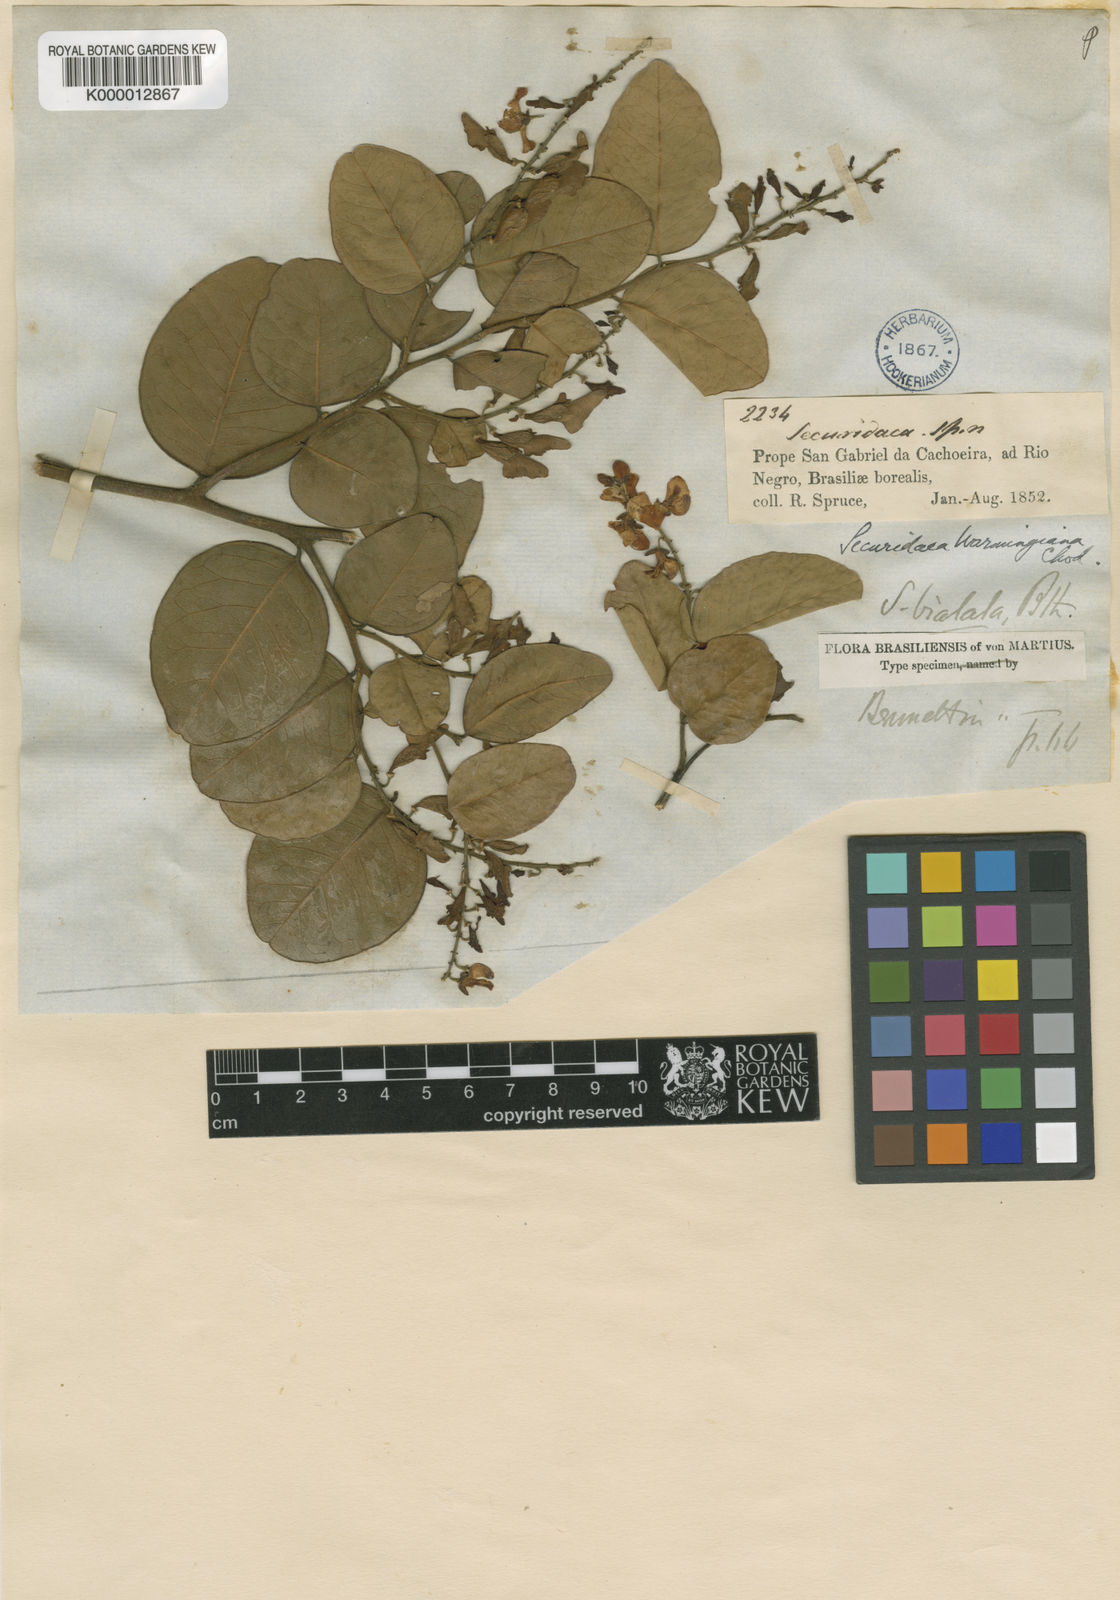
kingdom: Plantae
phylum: Tracheophyta
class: Magnoliopsida
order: Fabales
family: Polygalaceae
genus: Securidaca
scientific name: Securidaca warmingiana
